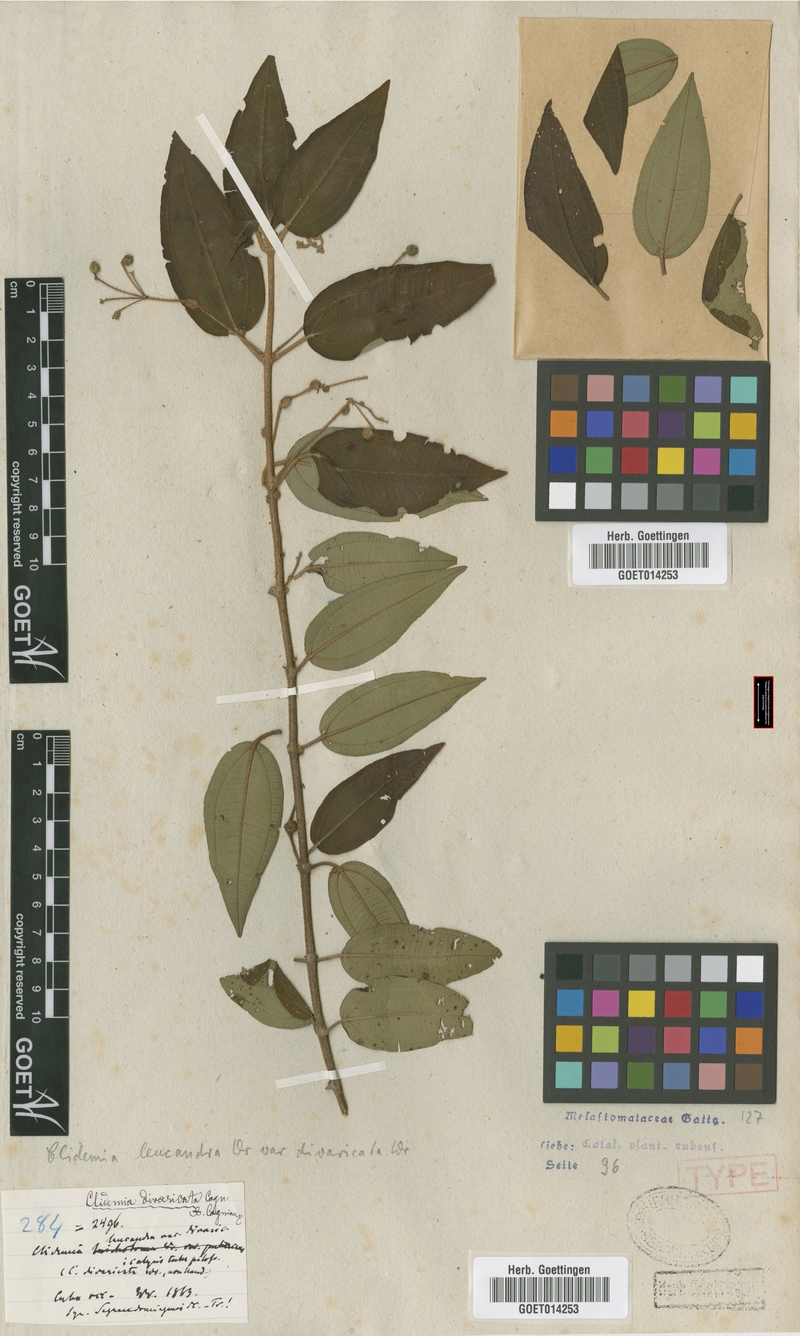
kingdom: Plantae
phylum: Tracheophyta
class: Magnoliopsida
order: Myrtales
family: Melastomataceae
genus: Miconia
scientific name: Miconia divaricatiflora
